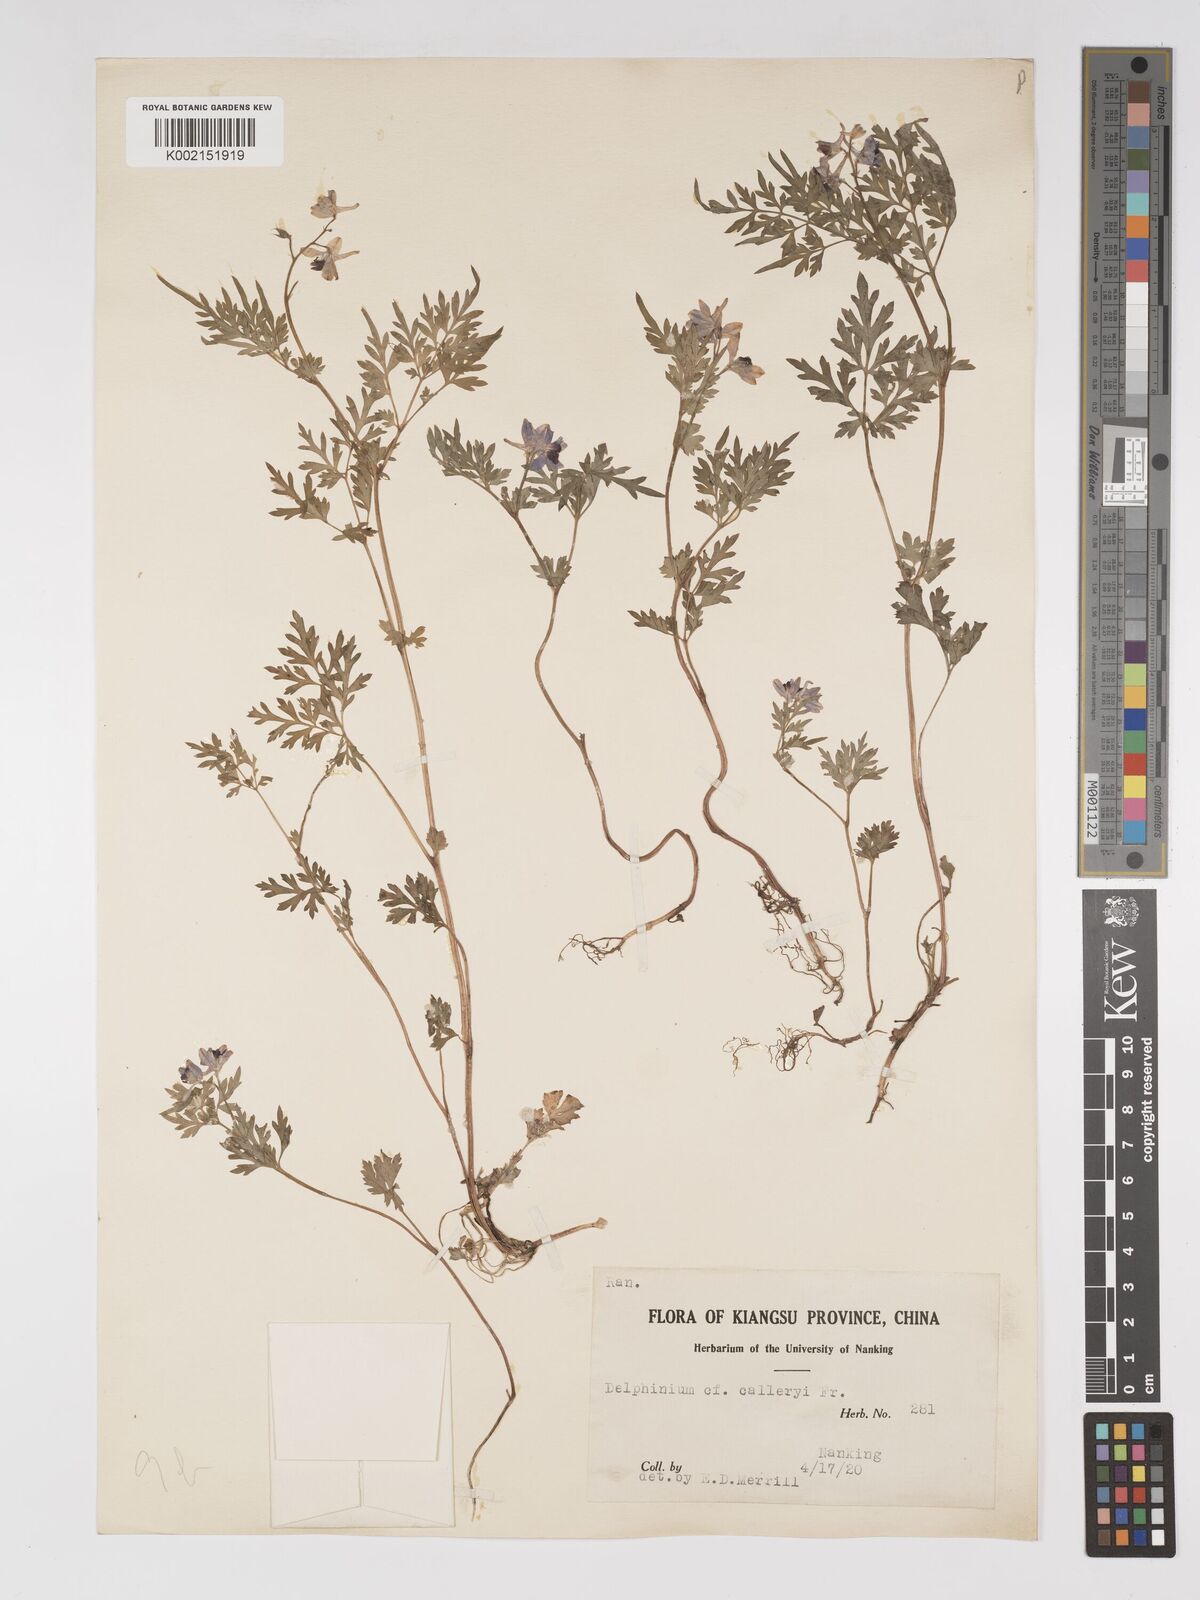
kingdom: Plantae
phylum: Tracheophyta
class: Magnoliopsida
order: Ranunculales
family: Ranunculaceae
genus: Delphinium
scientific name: Delphinium anthriscifolium
